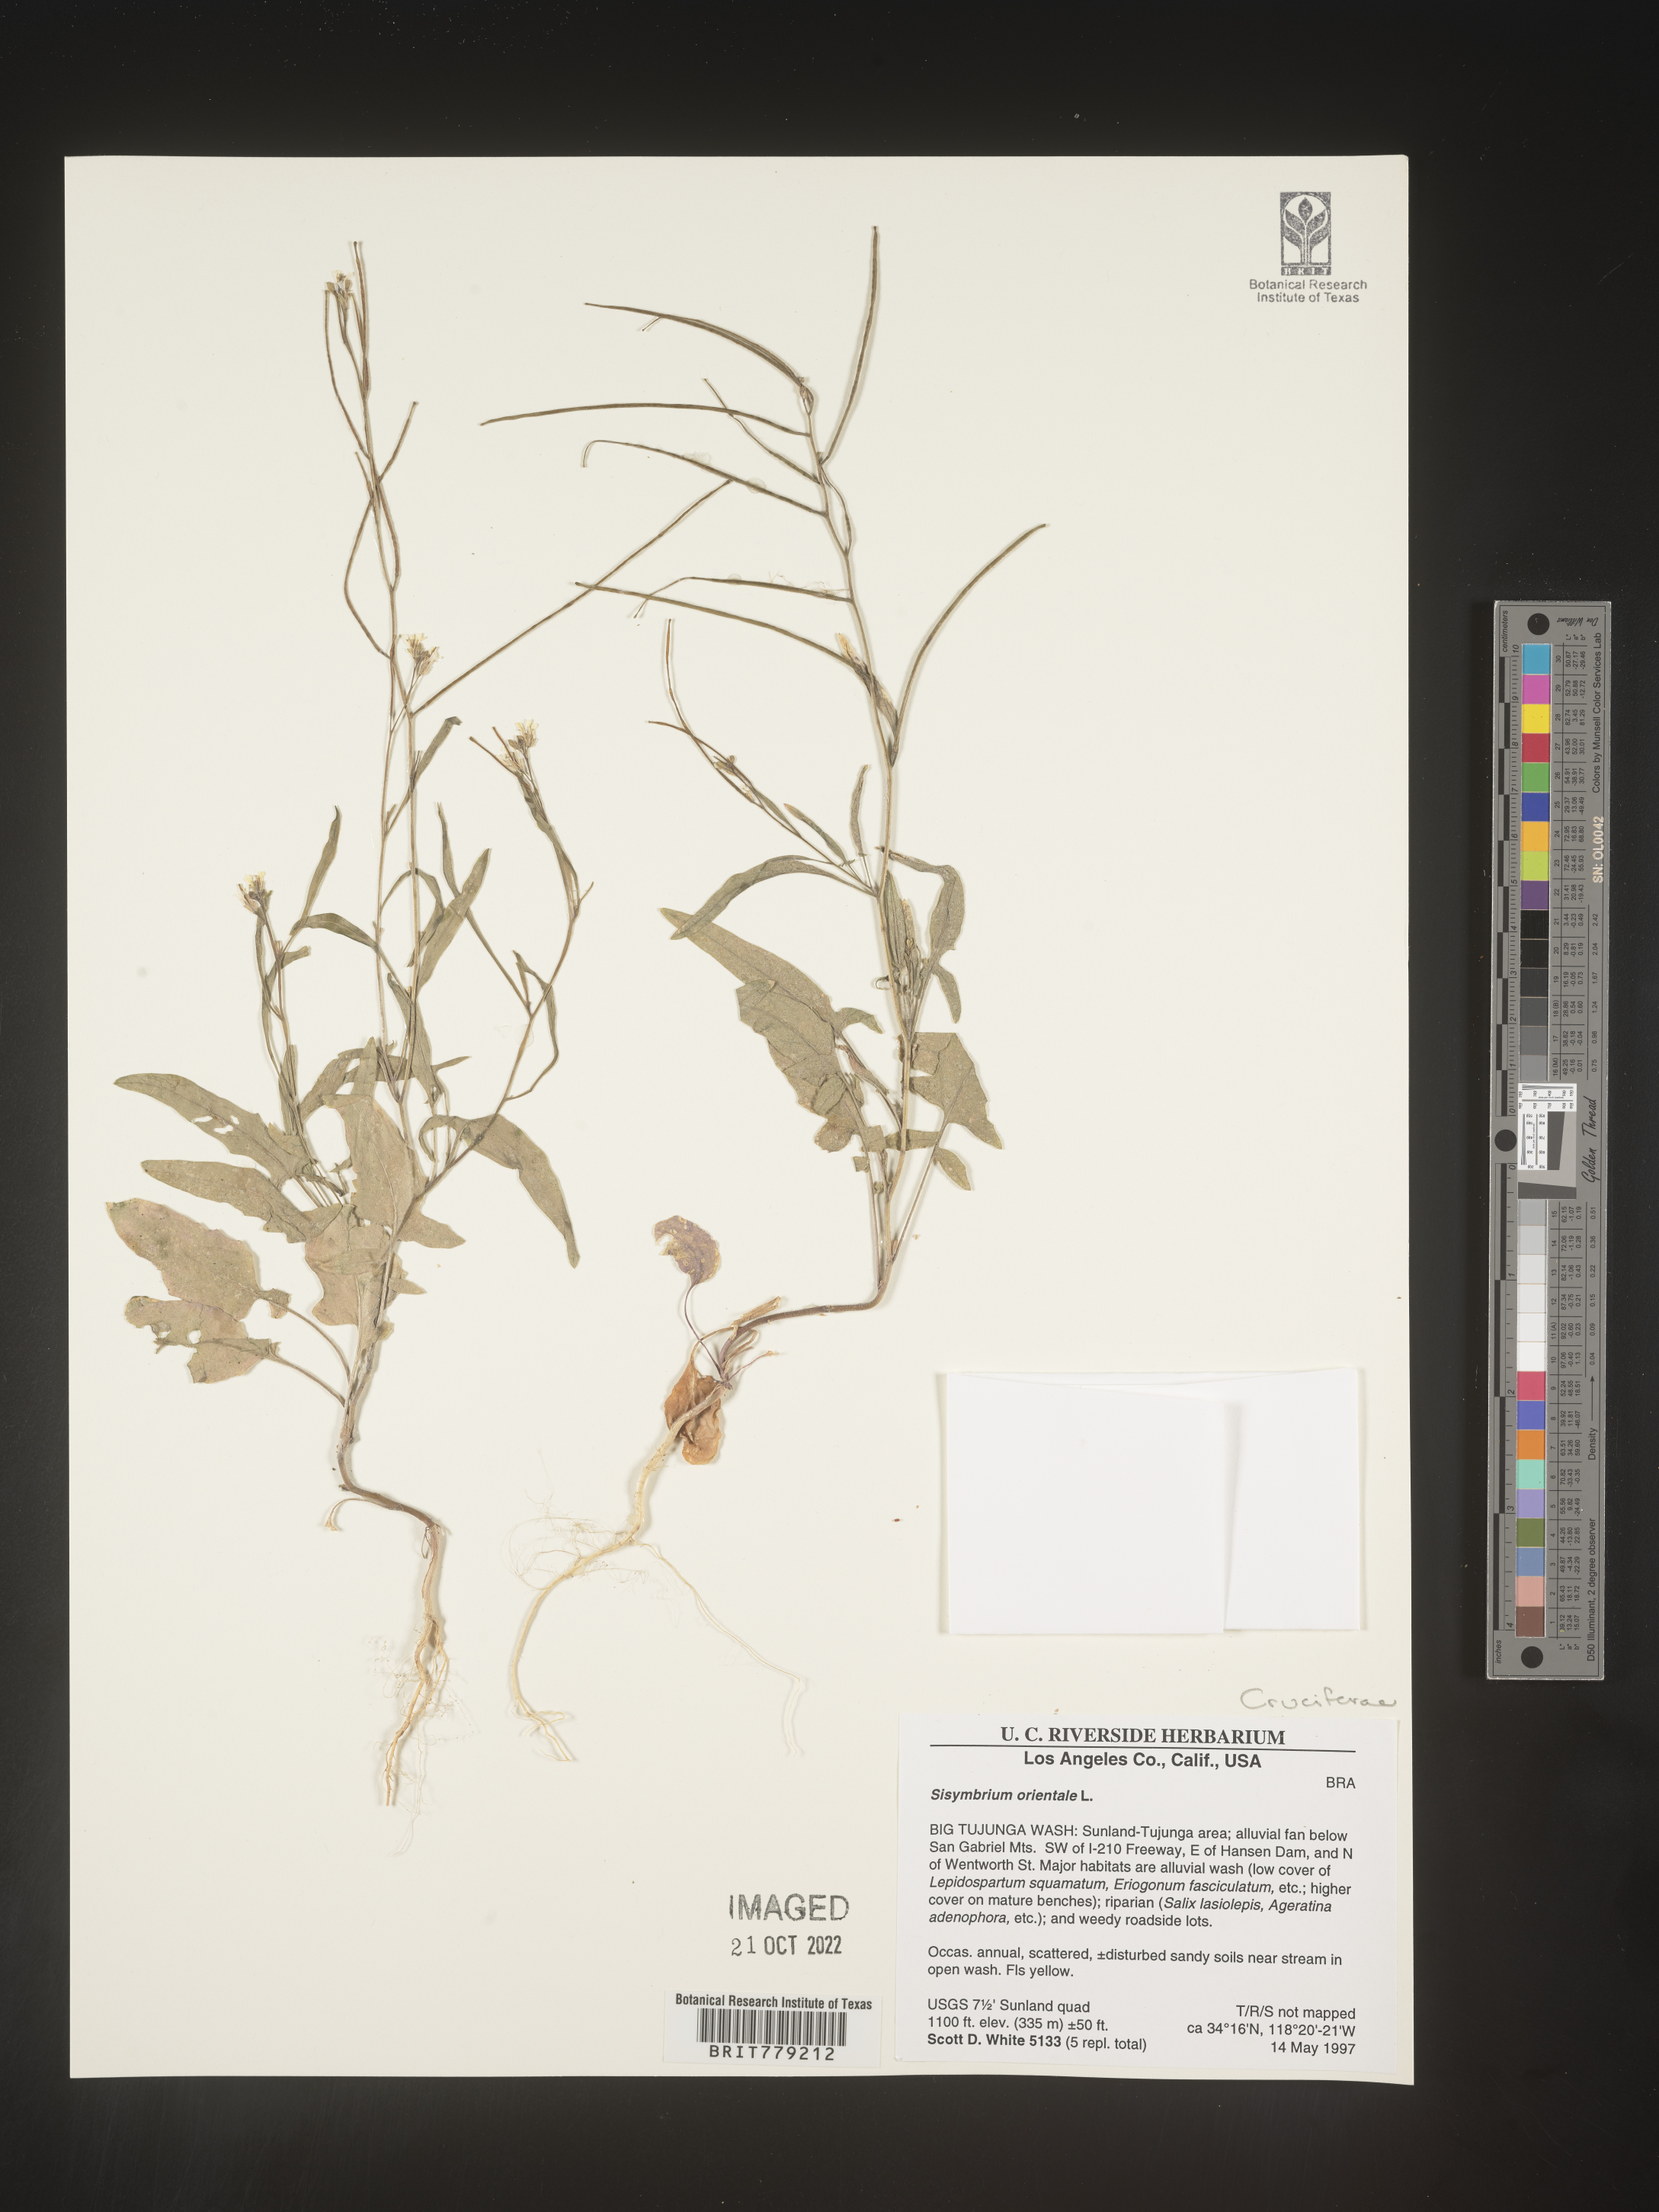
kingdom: Plantae
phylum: Tracheophyta
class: Magnoliopsida
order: Brassicales
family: Brassicaceae
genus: Sisymbrium
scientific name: Sisymbrium orientale
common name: Eastern rocket
